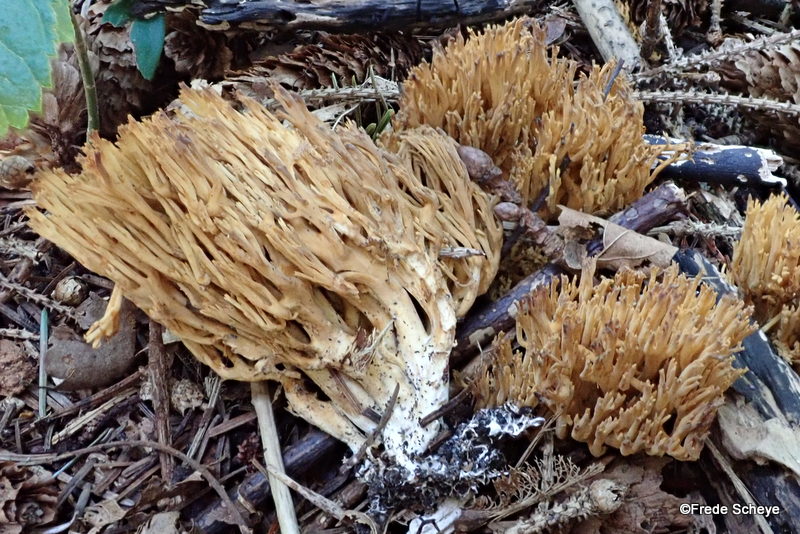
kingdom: Fungi
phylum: Basidiomycota
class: Agaricomycetes
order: Gomphales
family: Gomphaceae
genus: Phaeoclavulina
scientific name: Phaeoclavulina eumorpha
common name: gran-koralsvamp
